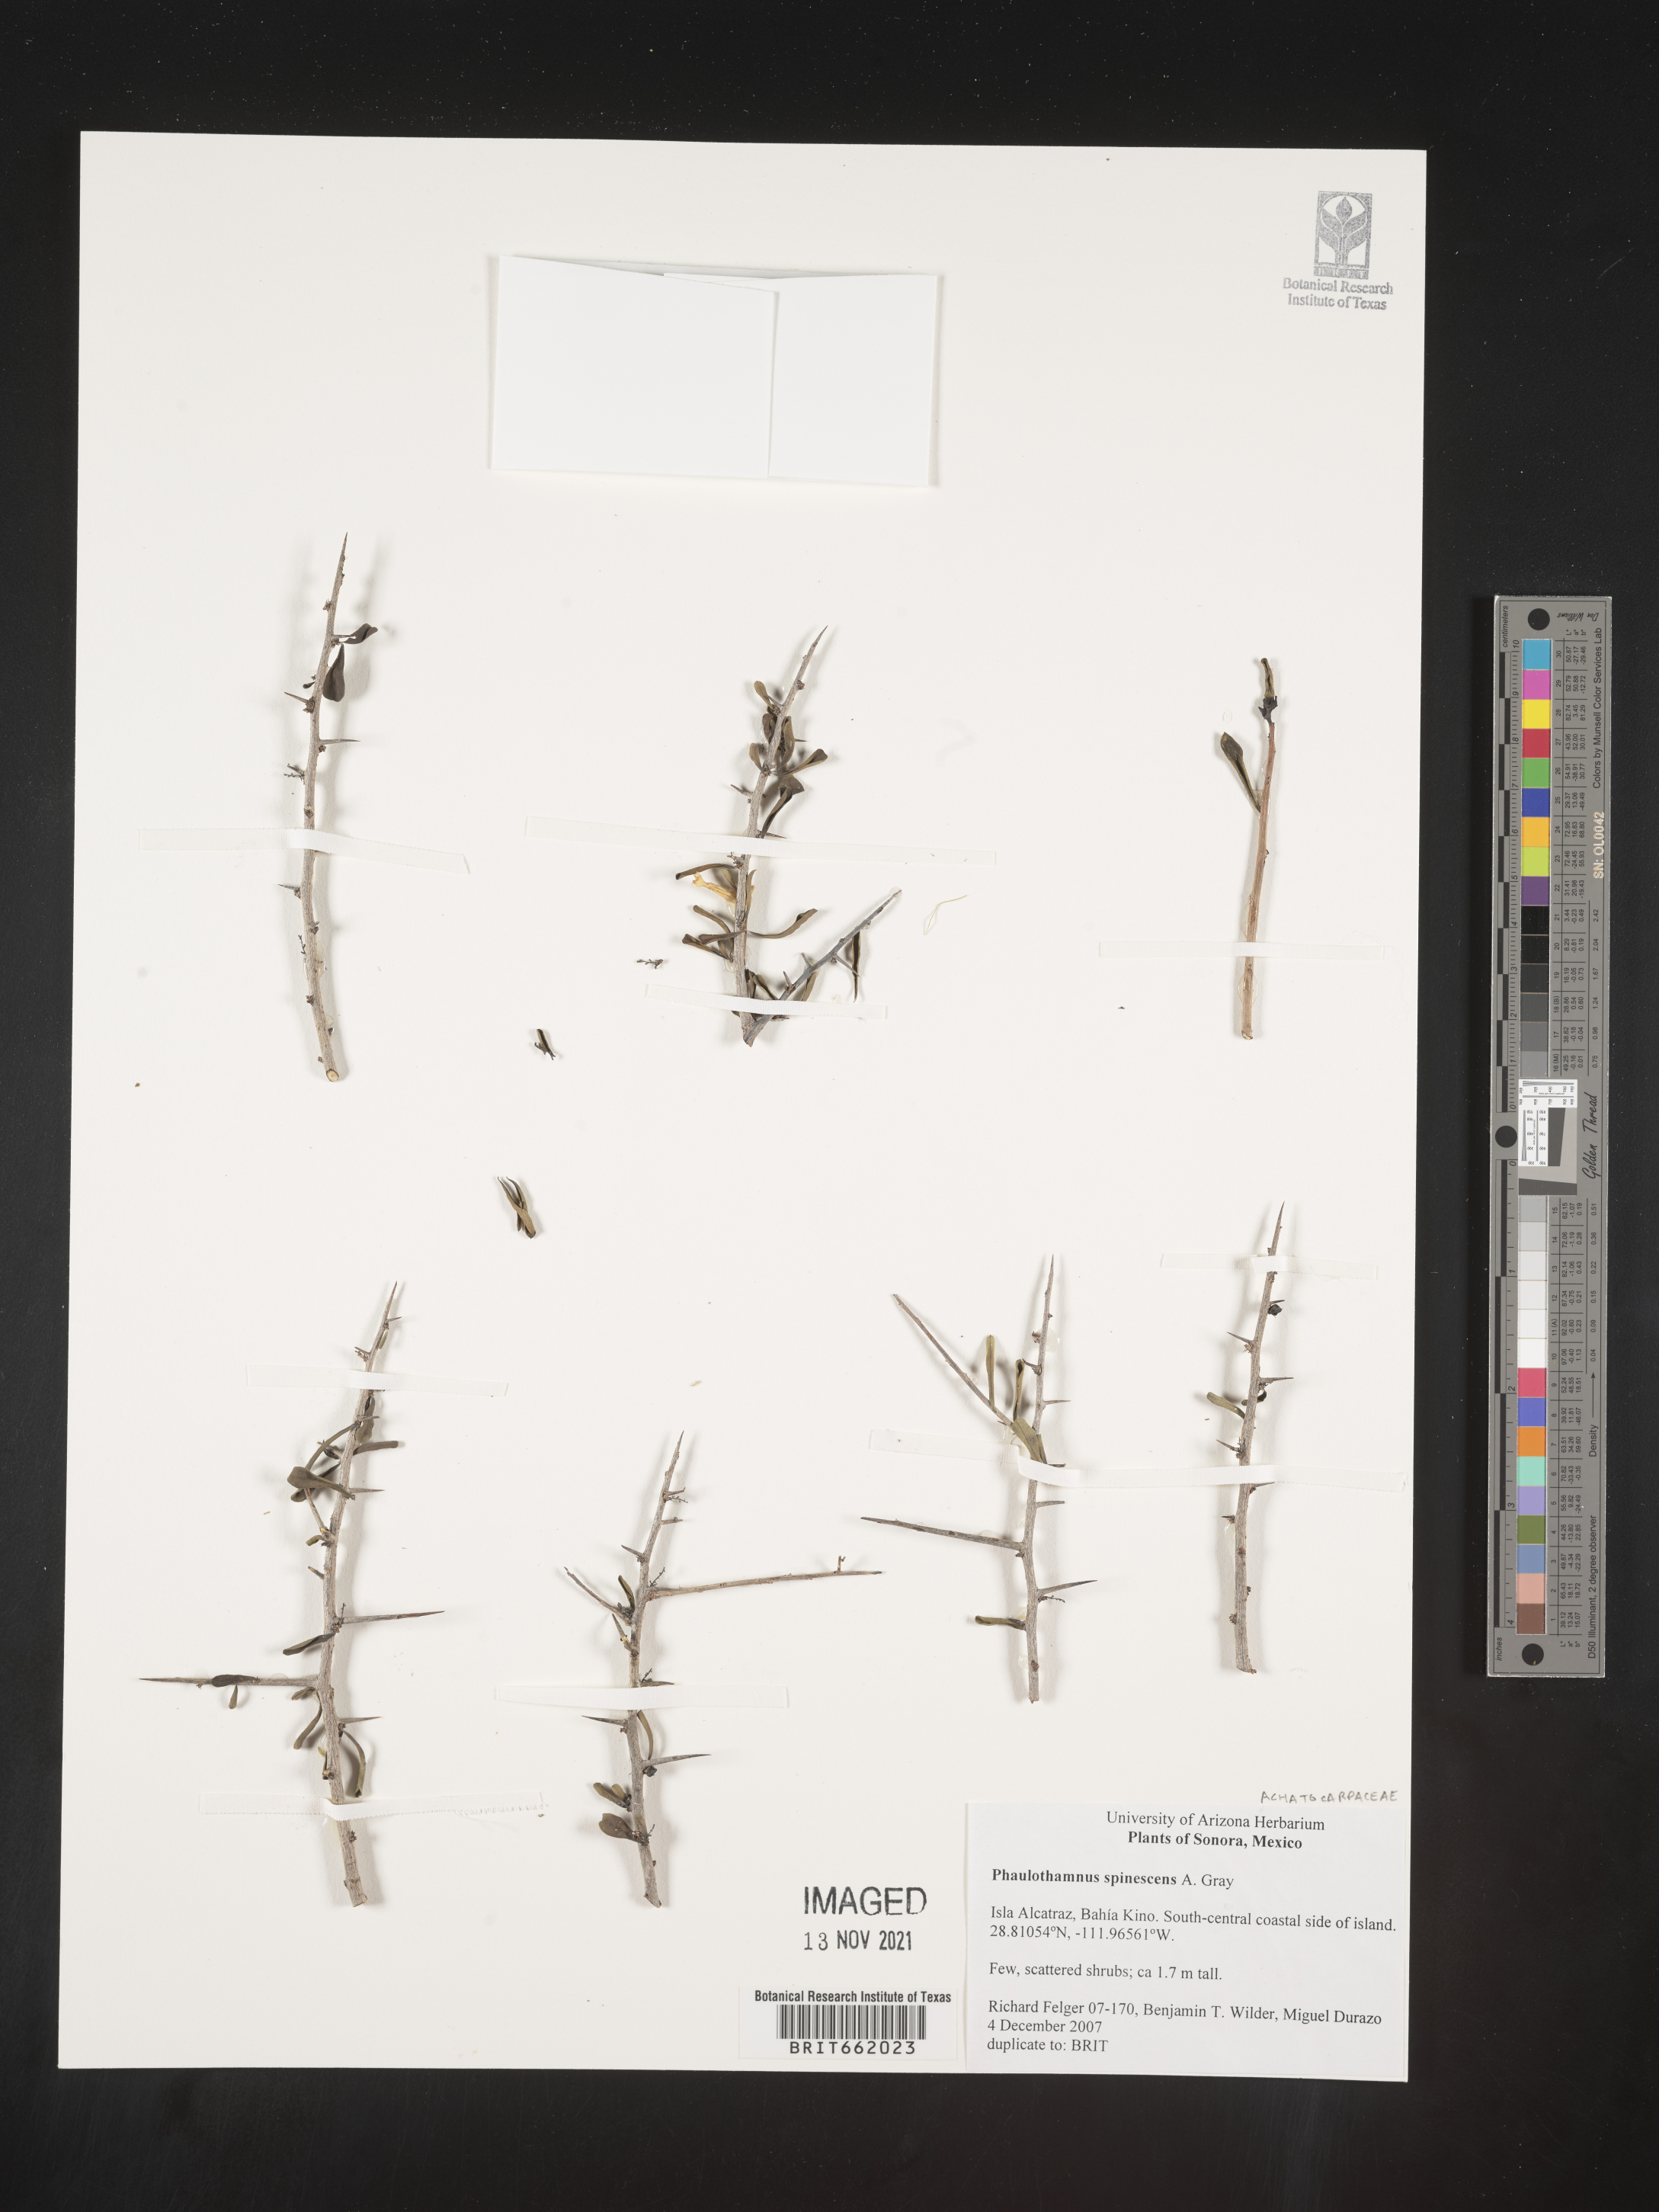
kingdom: Plantae
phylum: Tracheophyta
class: Magnoliopsida
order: Caryophyllales
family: Achatocarpaceae
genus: Phaulothamnus
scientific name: Phaulothamnus
